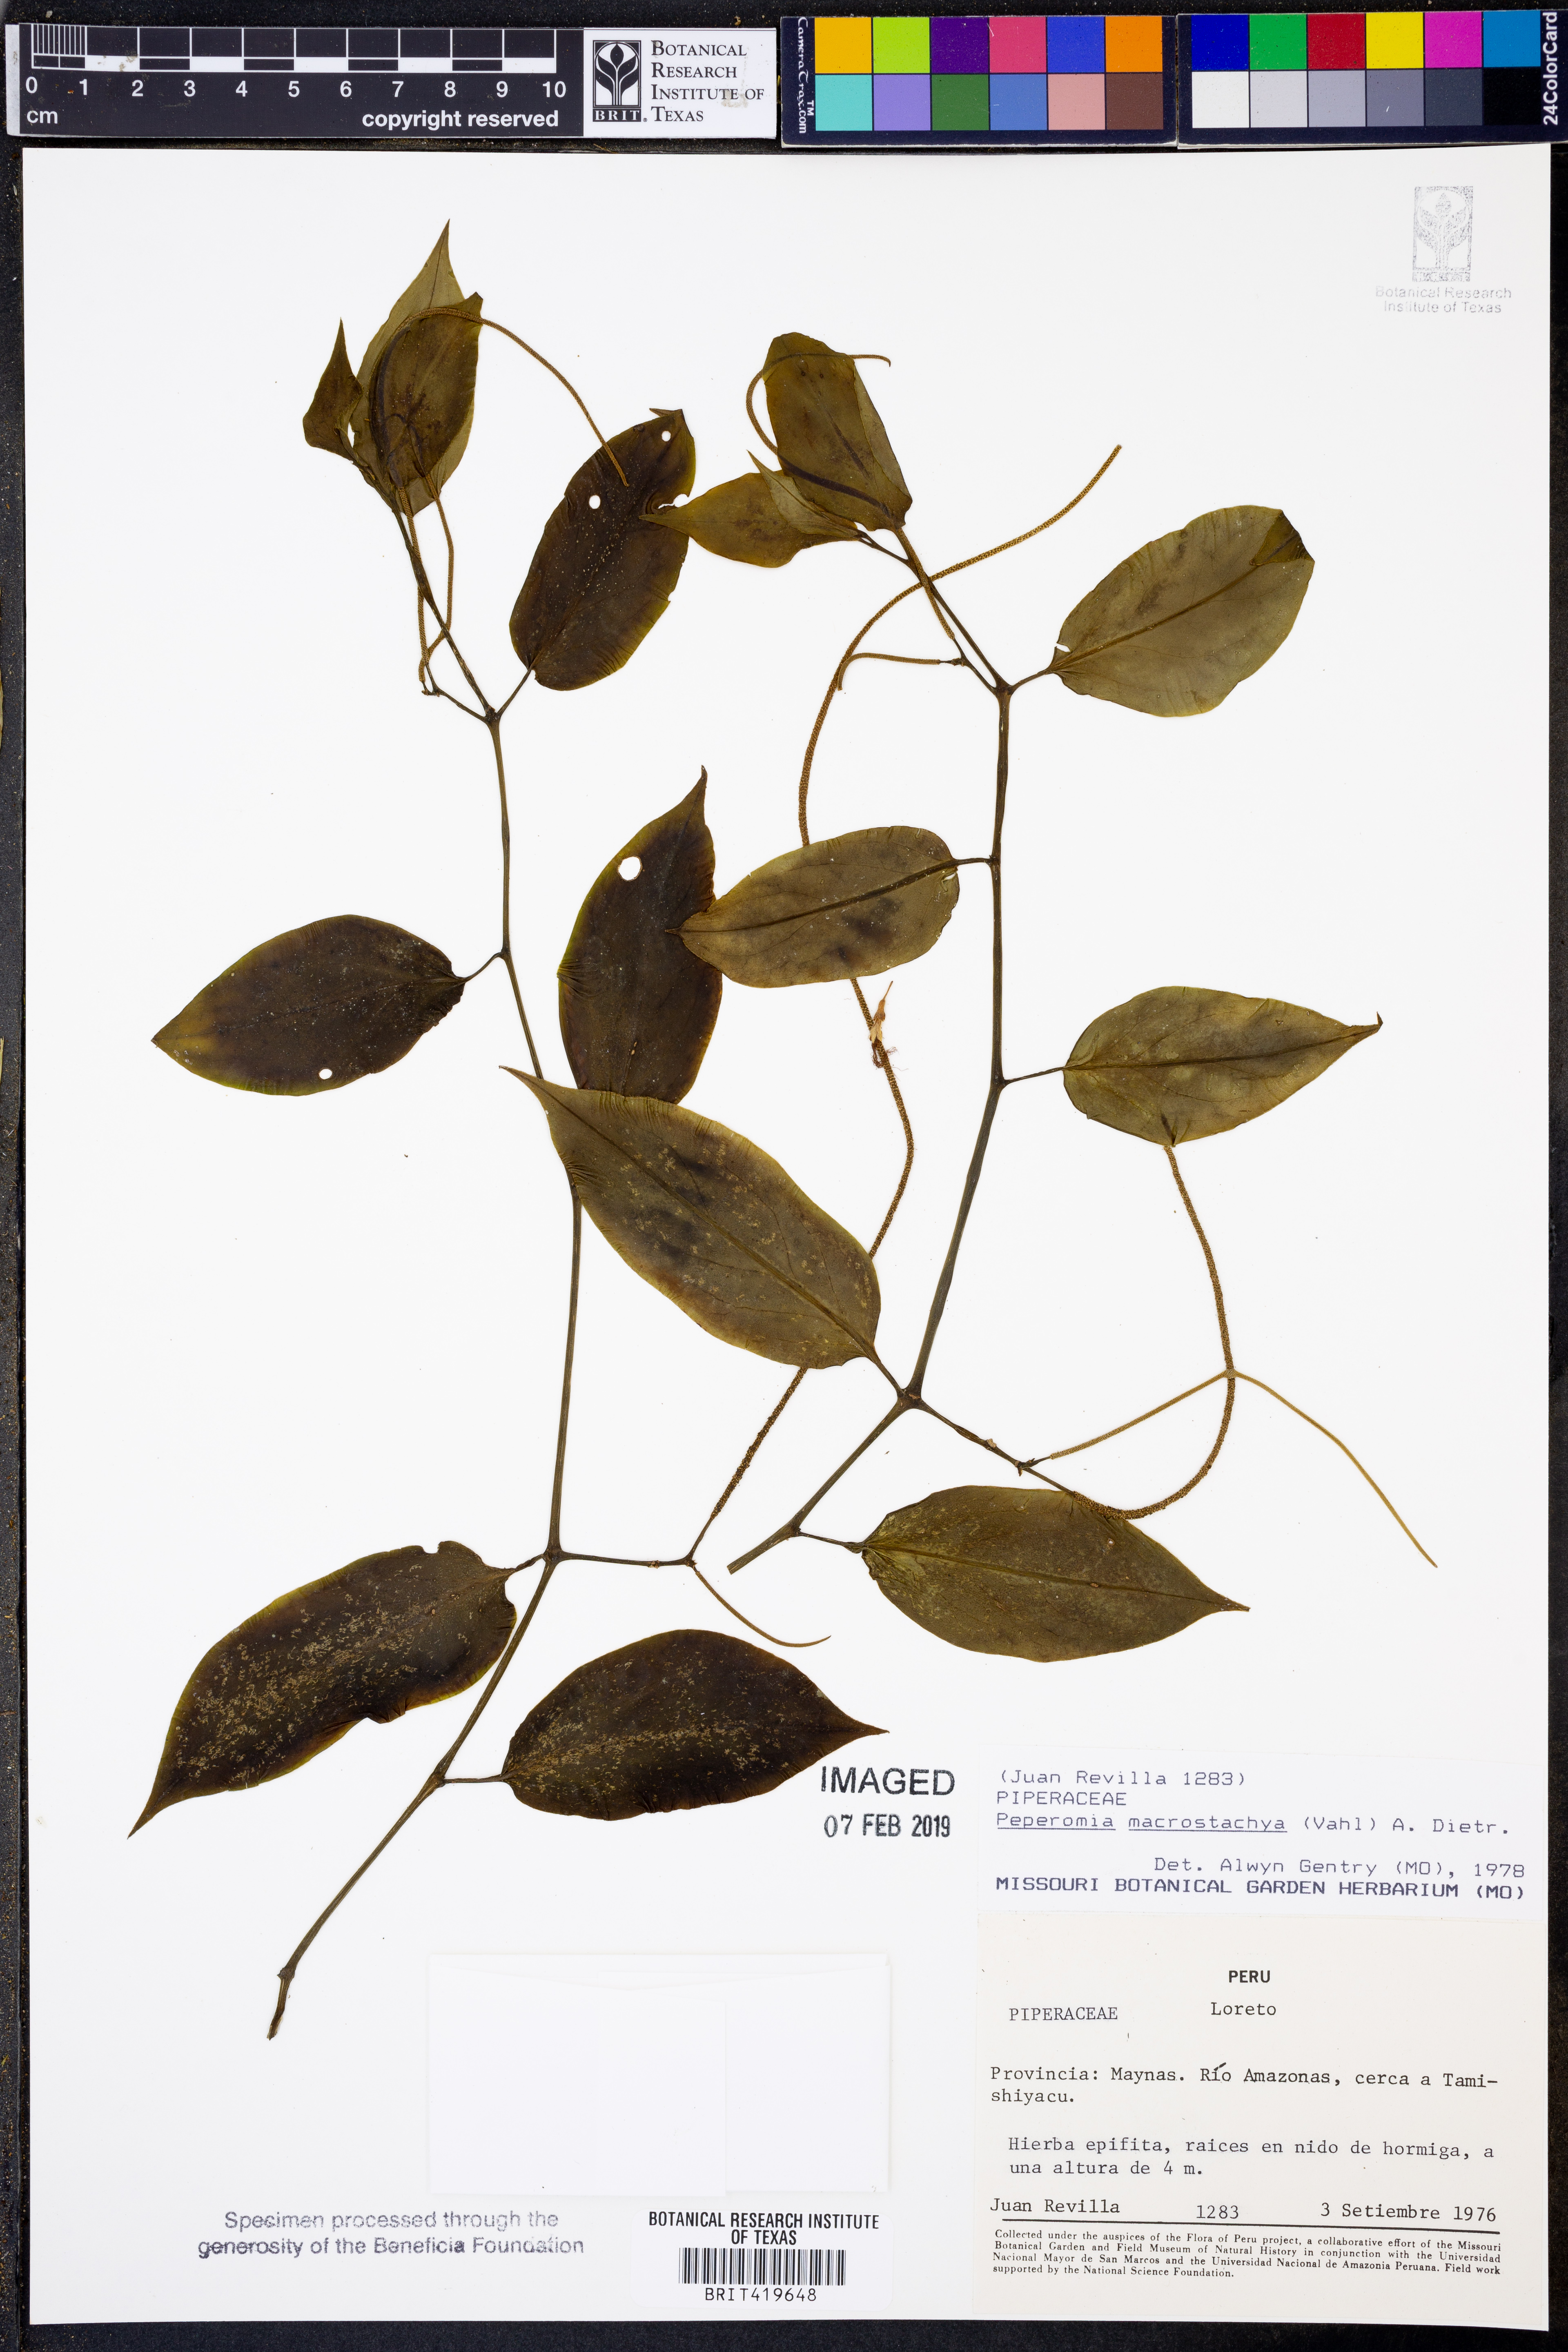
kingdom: Plantae
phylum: Tracheophyta
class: Magnoliopsida
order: Piperales
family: Piperaceae
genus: Peperomia
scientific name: Peperomia macrostachyos
